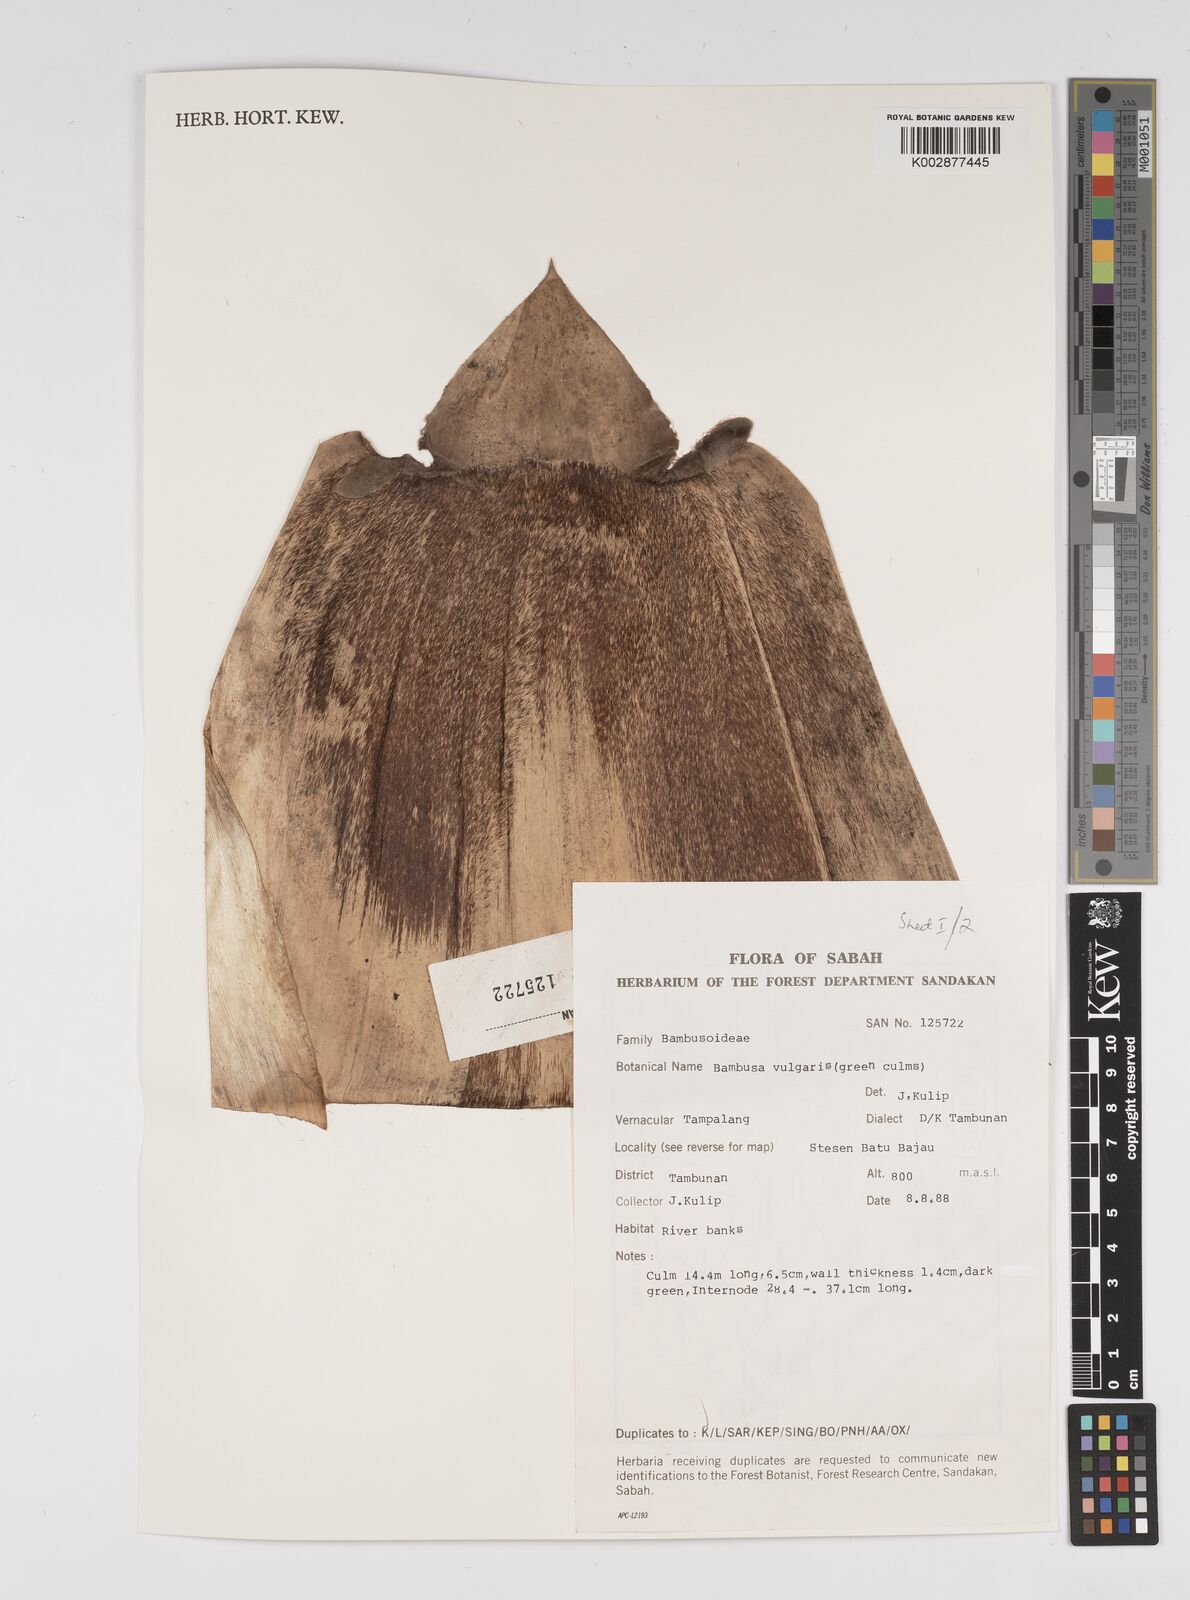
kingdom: Plantae
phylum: Tracheophyta
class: Liliopsida
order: Poales
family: Poaceae
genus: Bambusa
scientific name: Bambusa vulgaris
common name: Common bamboo
